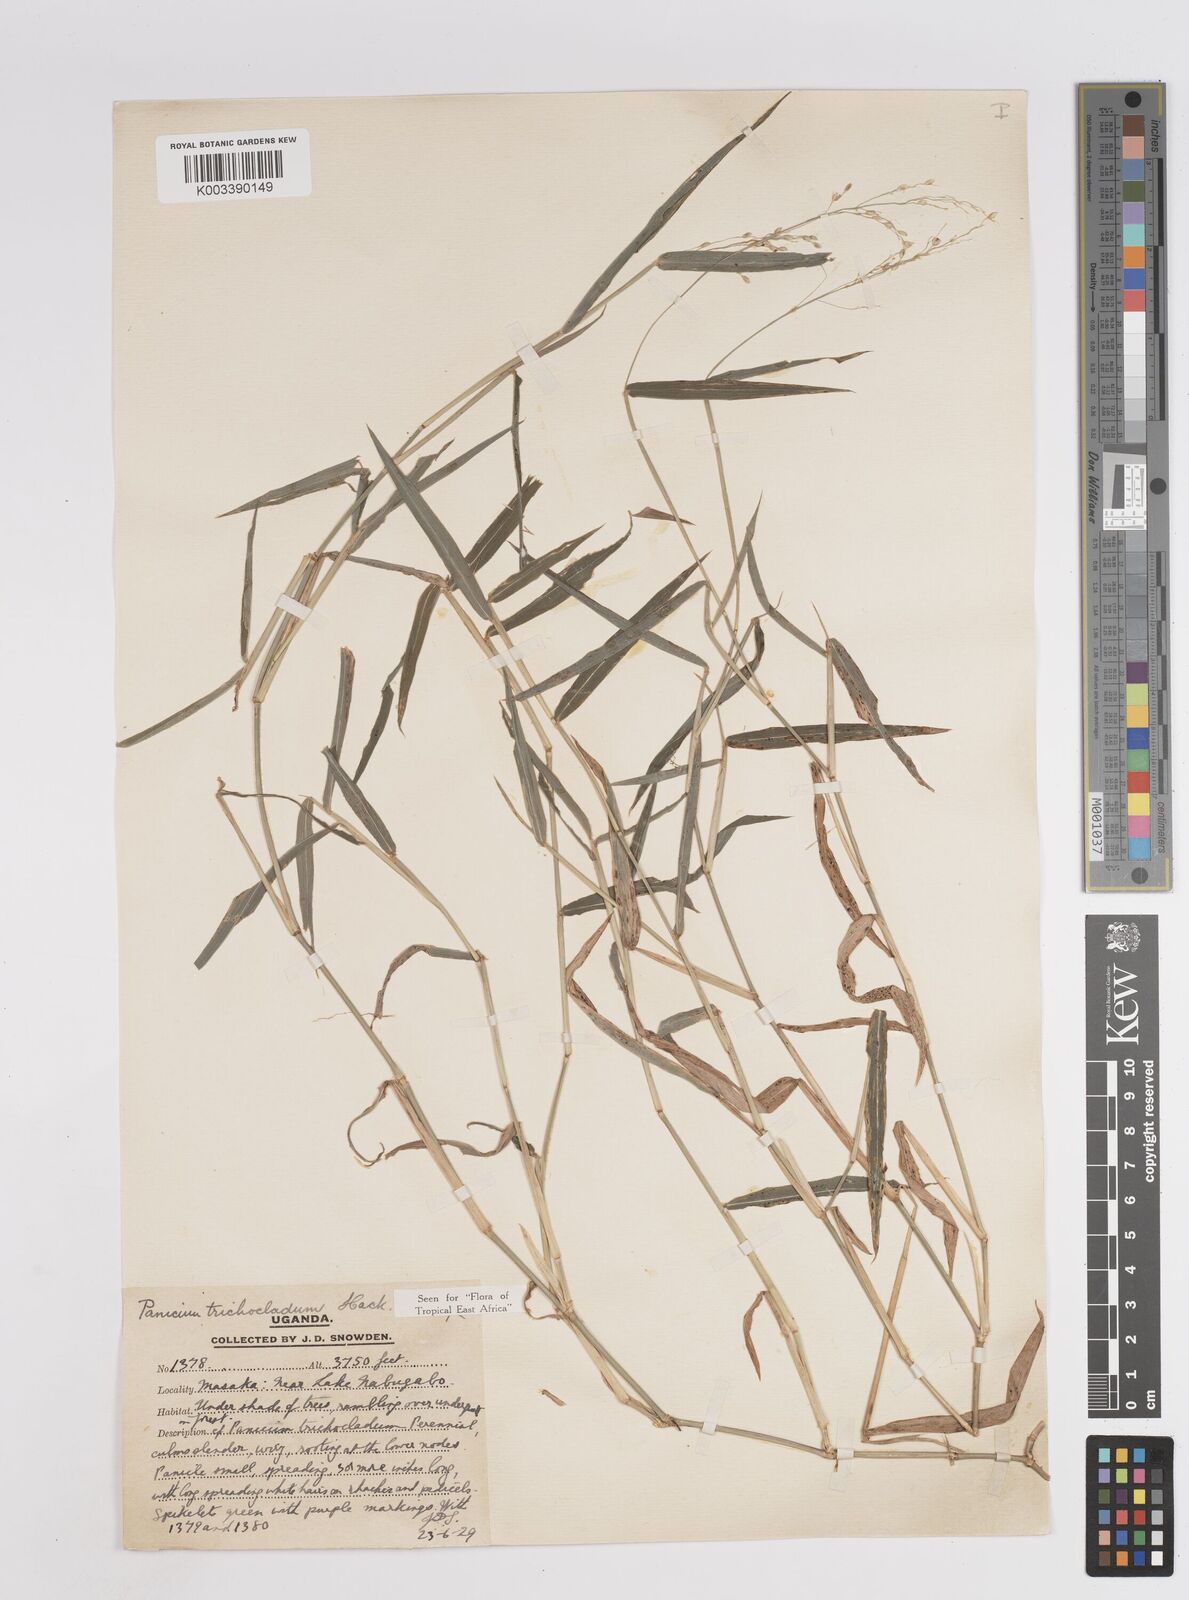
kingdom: Plantae
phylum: Tracheophyta
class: Liliopsida
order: Poales
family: Poaceae
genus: Megathyrsus
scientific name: Megathyrsus maximus
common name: Guineagrass
